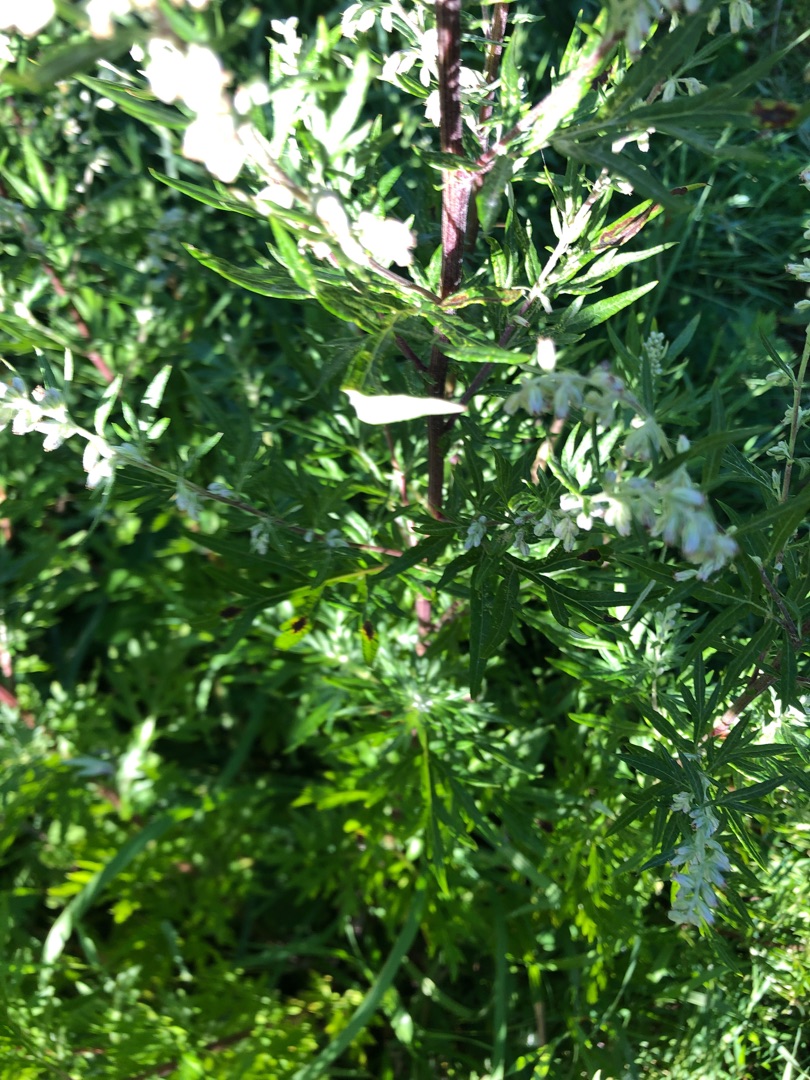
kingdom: Plantae
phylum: Tracheophyta
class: Magnoliopsida
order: Asterales
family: Asteraceae
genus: Artemisia
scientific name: Artemisia vulgaris
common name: Grå-bynke
